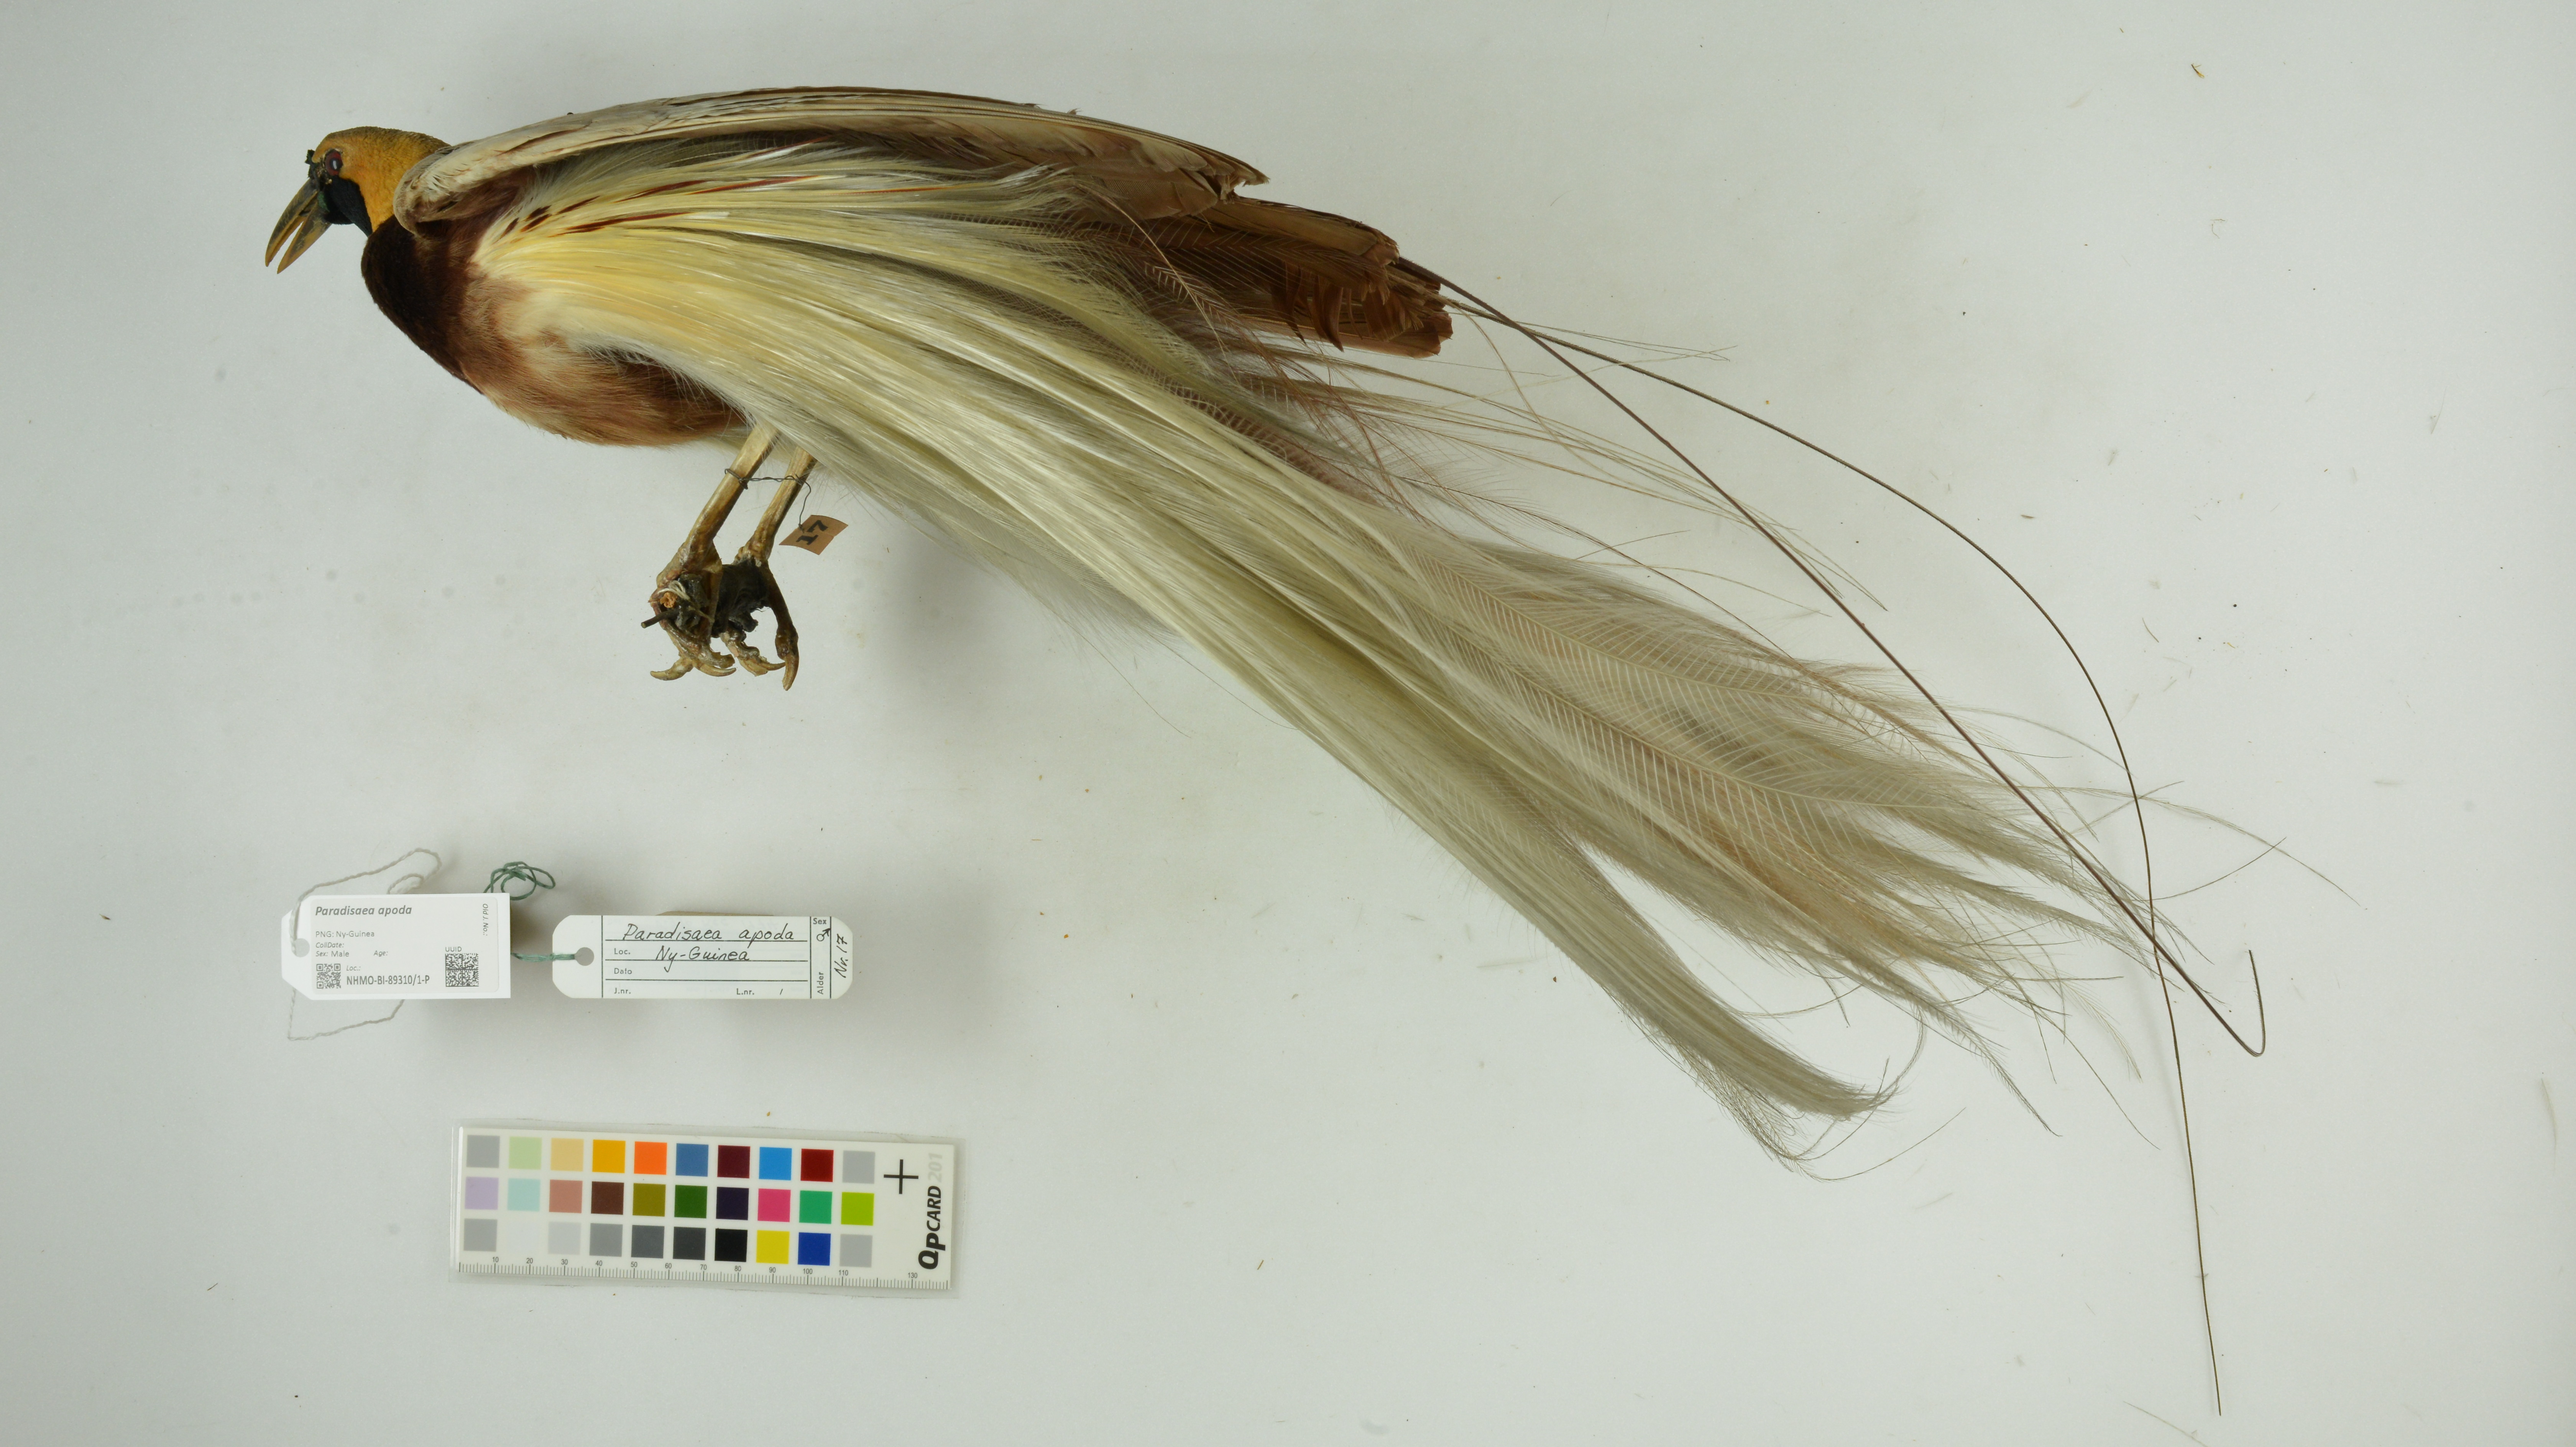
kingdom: Animalia
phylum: Chordata
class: Aves
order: Passeriformes
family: Paradisaeidae
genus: Paradisaea
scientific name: Paradisaea apoda
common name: Greater bird-of-paradise
